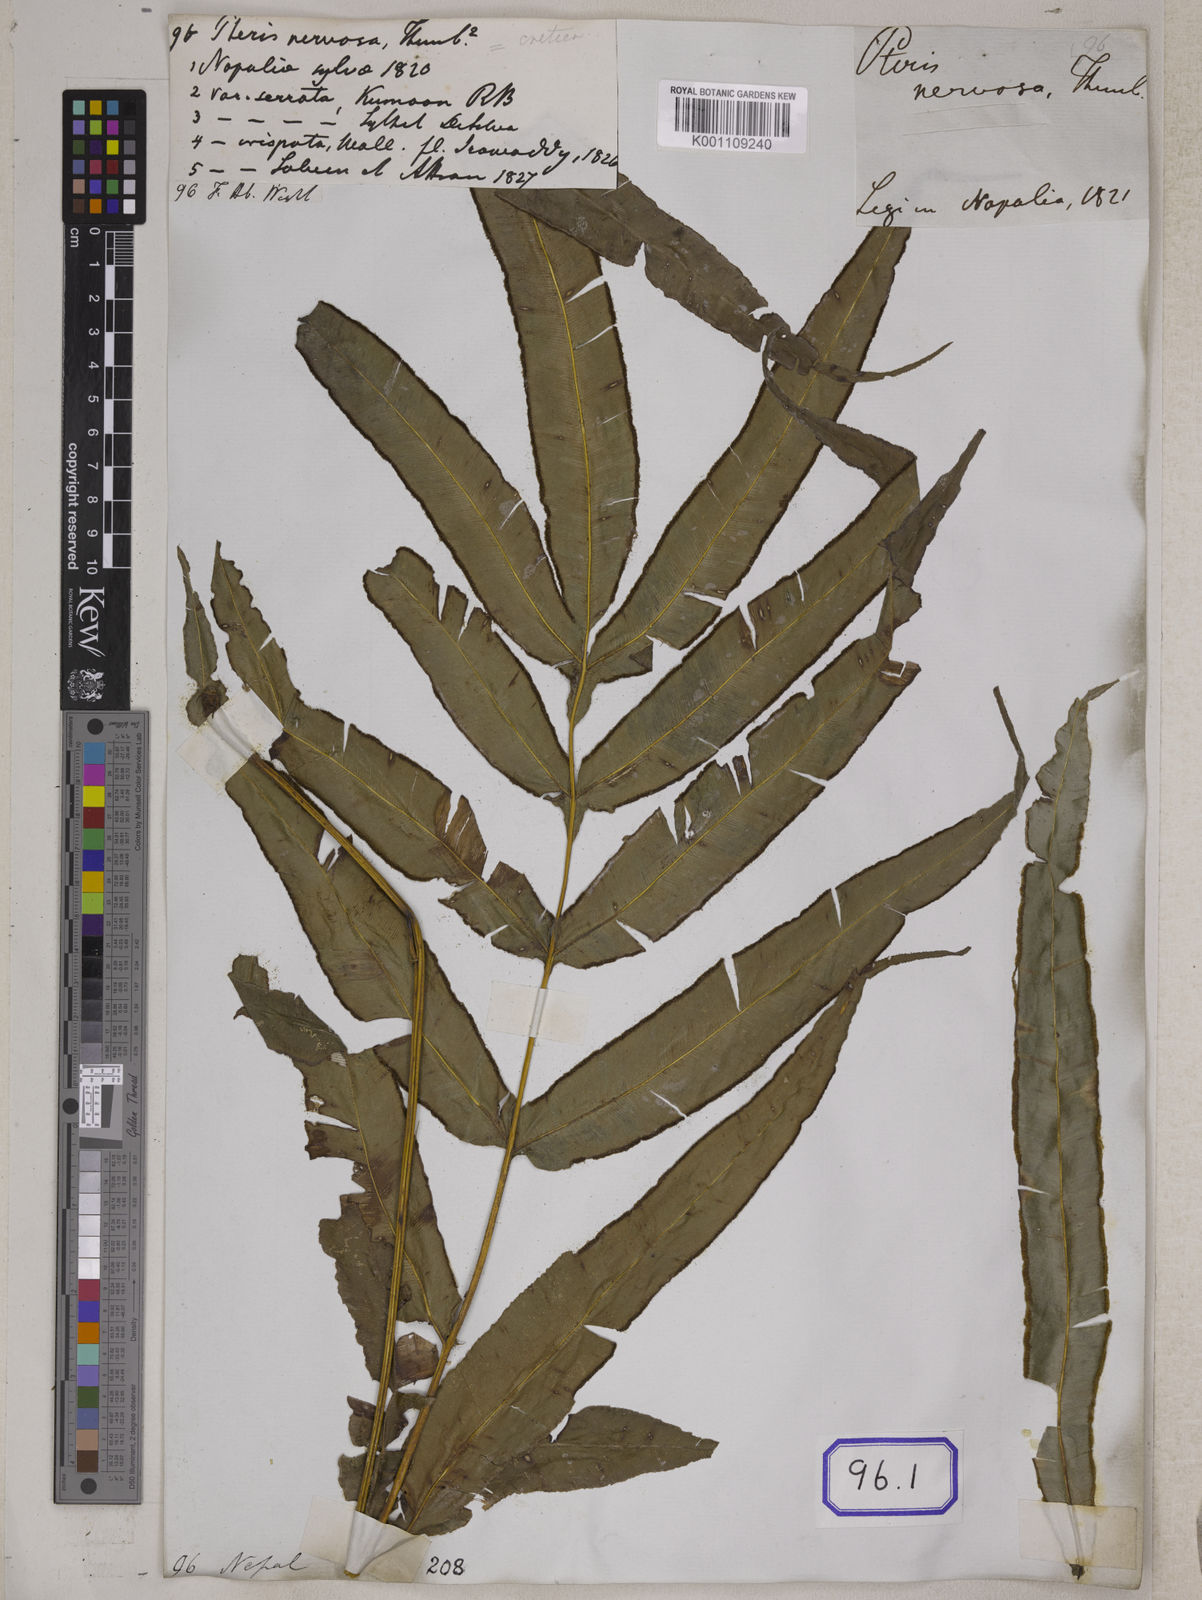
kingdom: Plantae
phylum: Tracheophyta
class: Polypodiopsida
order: Polypodiales
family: Pteridaceae
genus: Pteris
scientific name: Pteris cretica
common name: Ribbon fern
